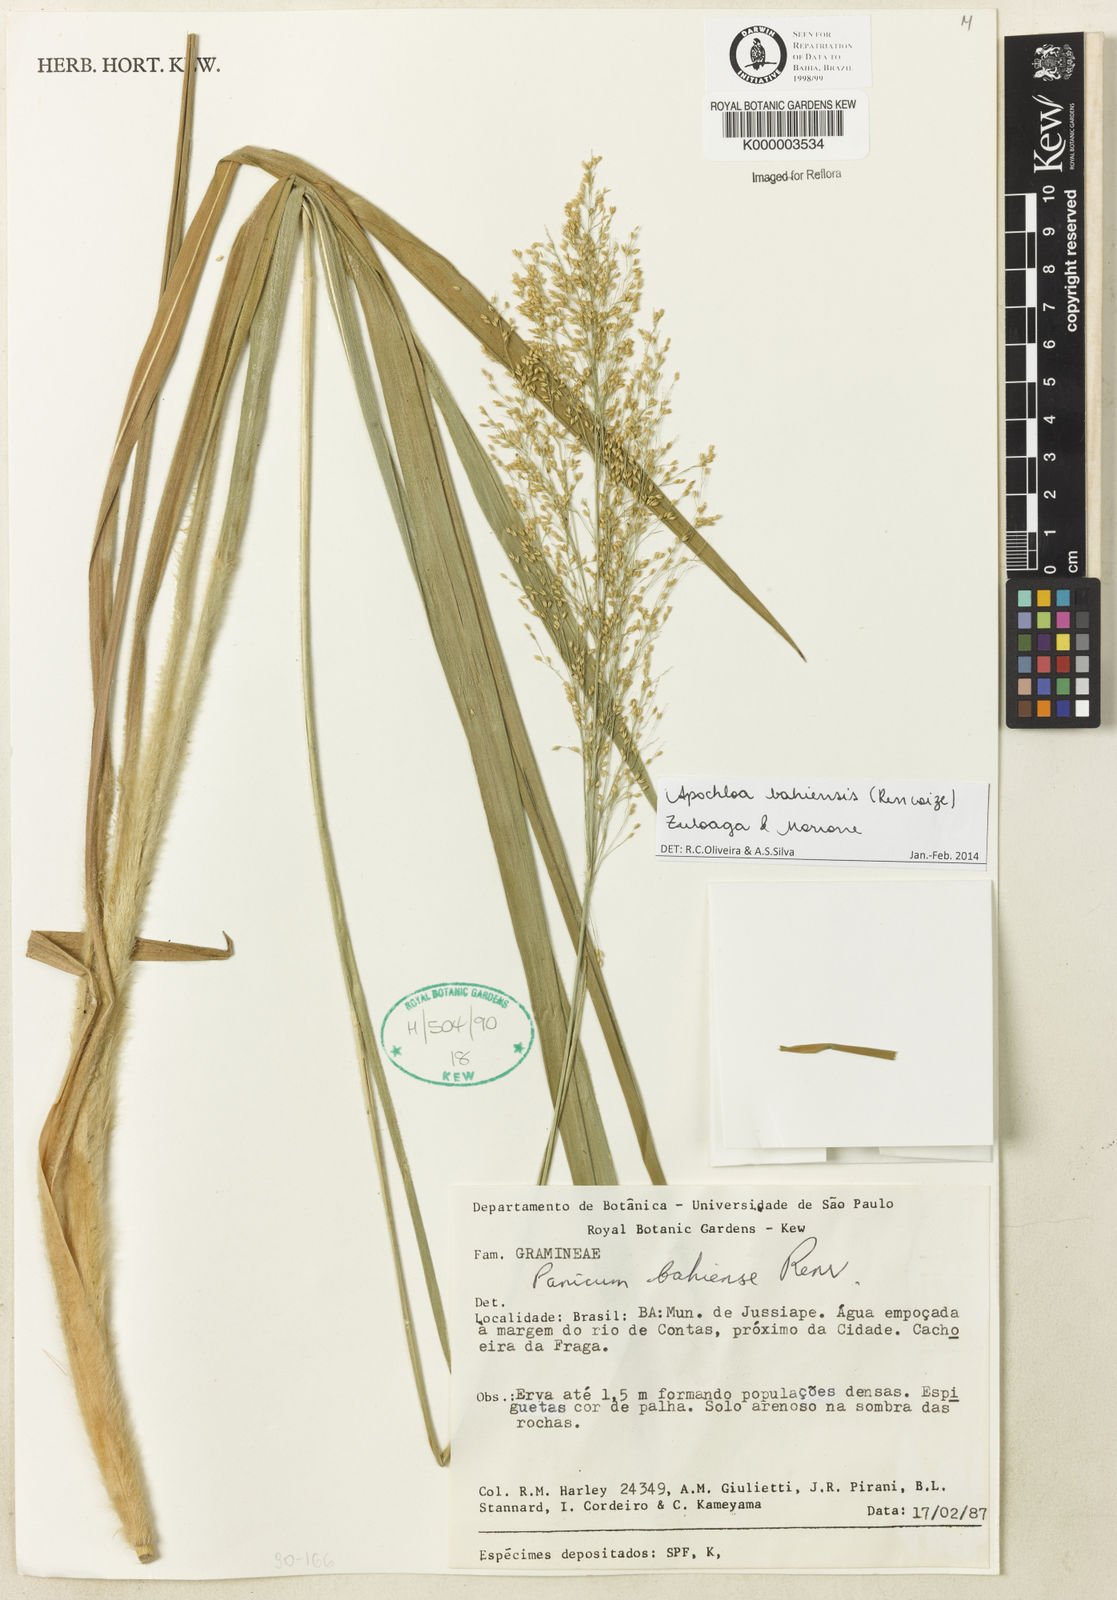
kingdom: Plantae
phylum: Tracheophyta
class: Liliopsida
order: Poales
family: Poaceae
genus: Apochloa
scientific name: Apochloa bahiensis
